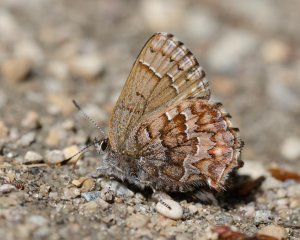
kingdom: Animalia
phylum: Arthropoda
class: Insecta
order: Lepidoptera
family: Lycaenidae
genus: Incisalia
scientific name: Incisalia niphon
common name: Eastern Pine Elfin
